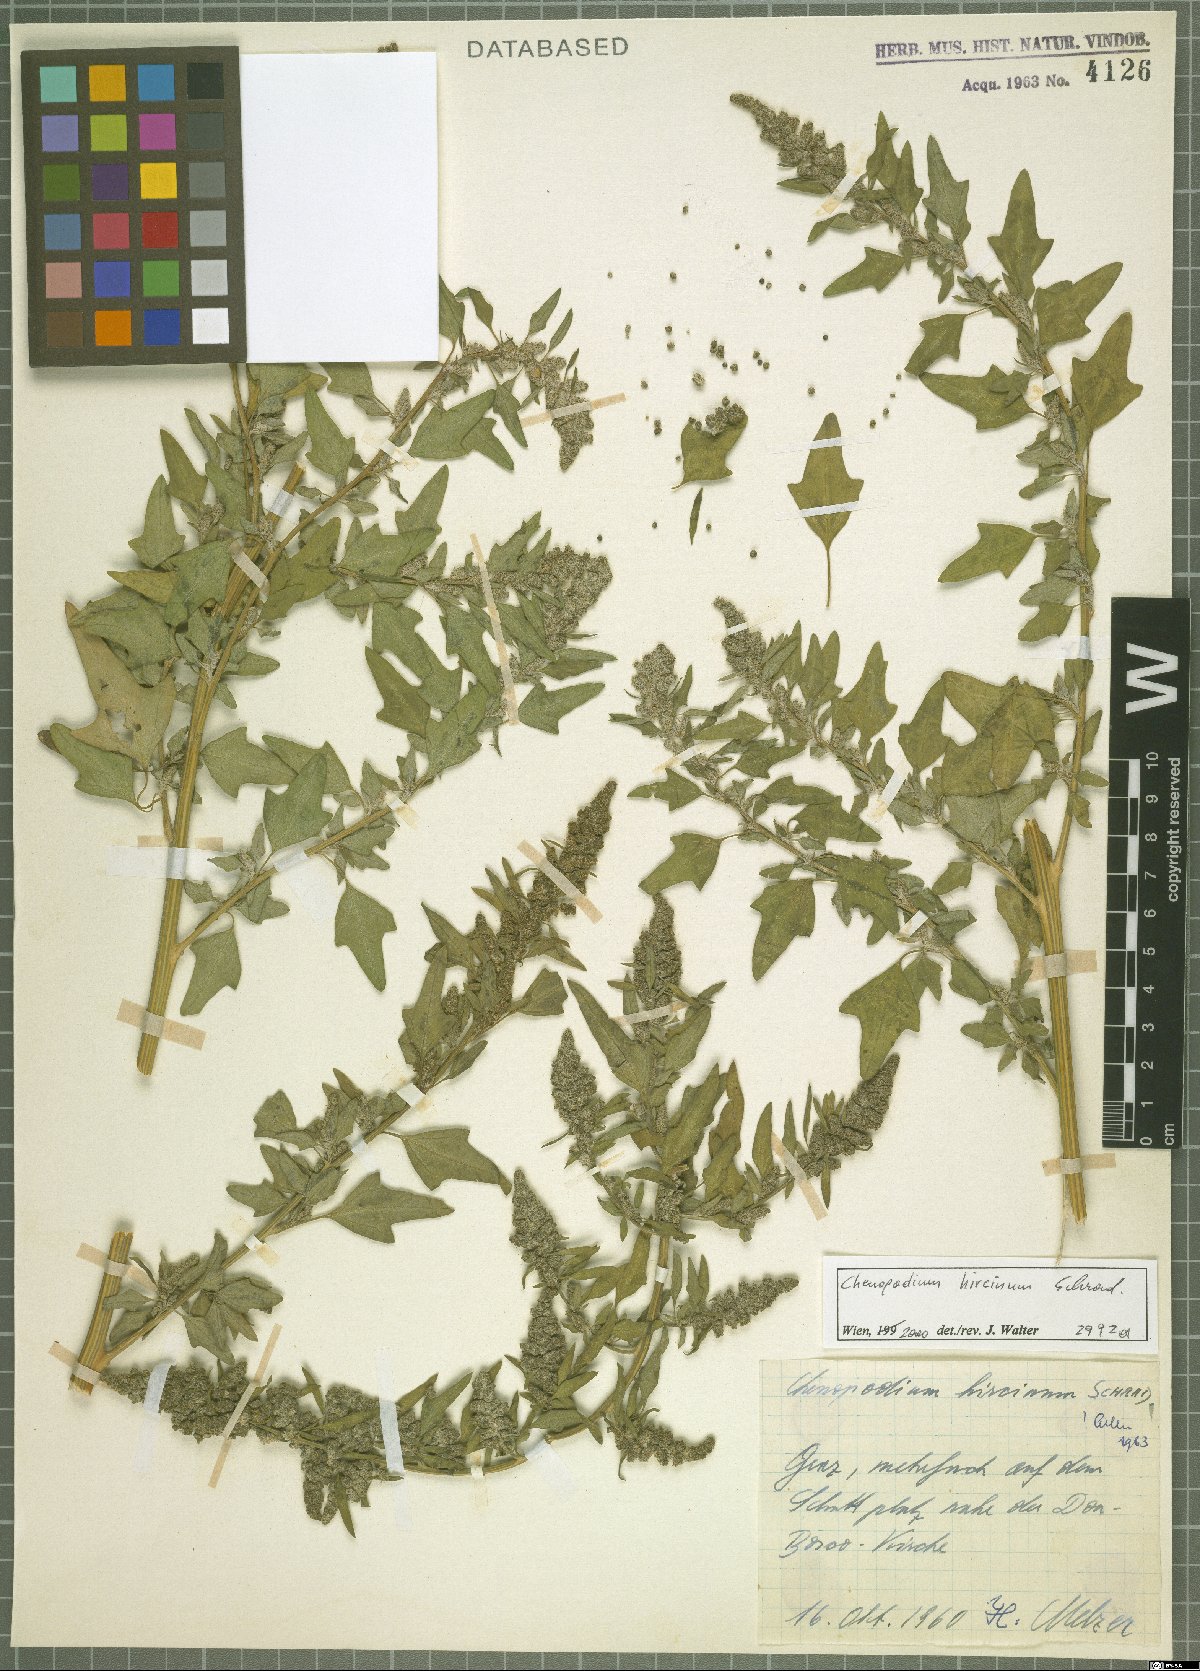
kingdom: Plantae
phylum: Tracheophyta
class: Magnoliopsida
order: Caryophyllales
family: Amaranthaceae
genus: Chenopodium
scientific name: Chenopodium hircinum
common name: Foetid goosefoot
